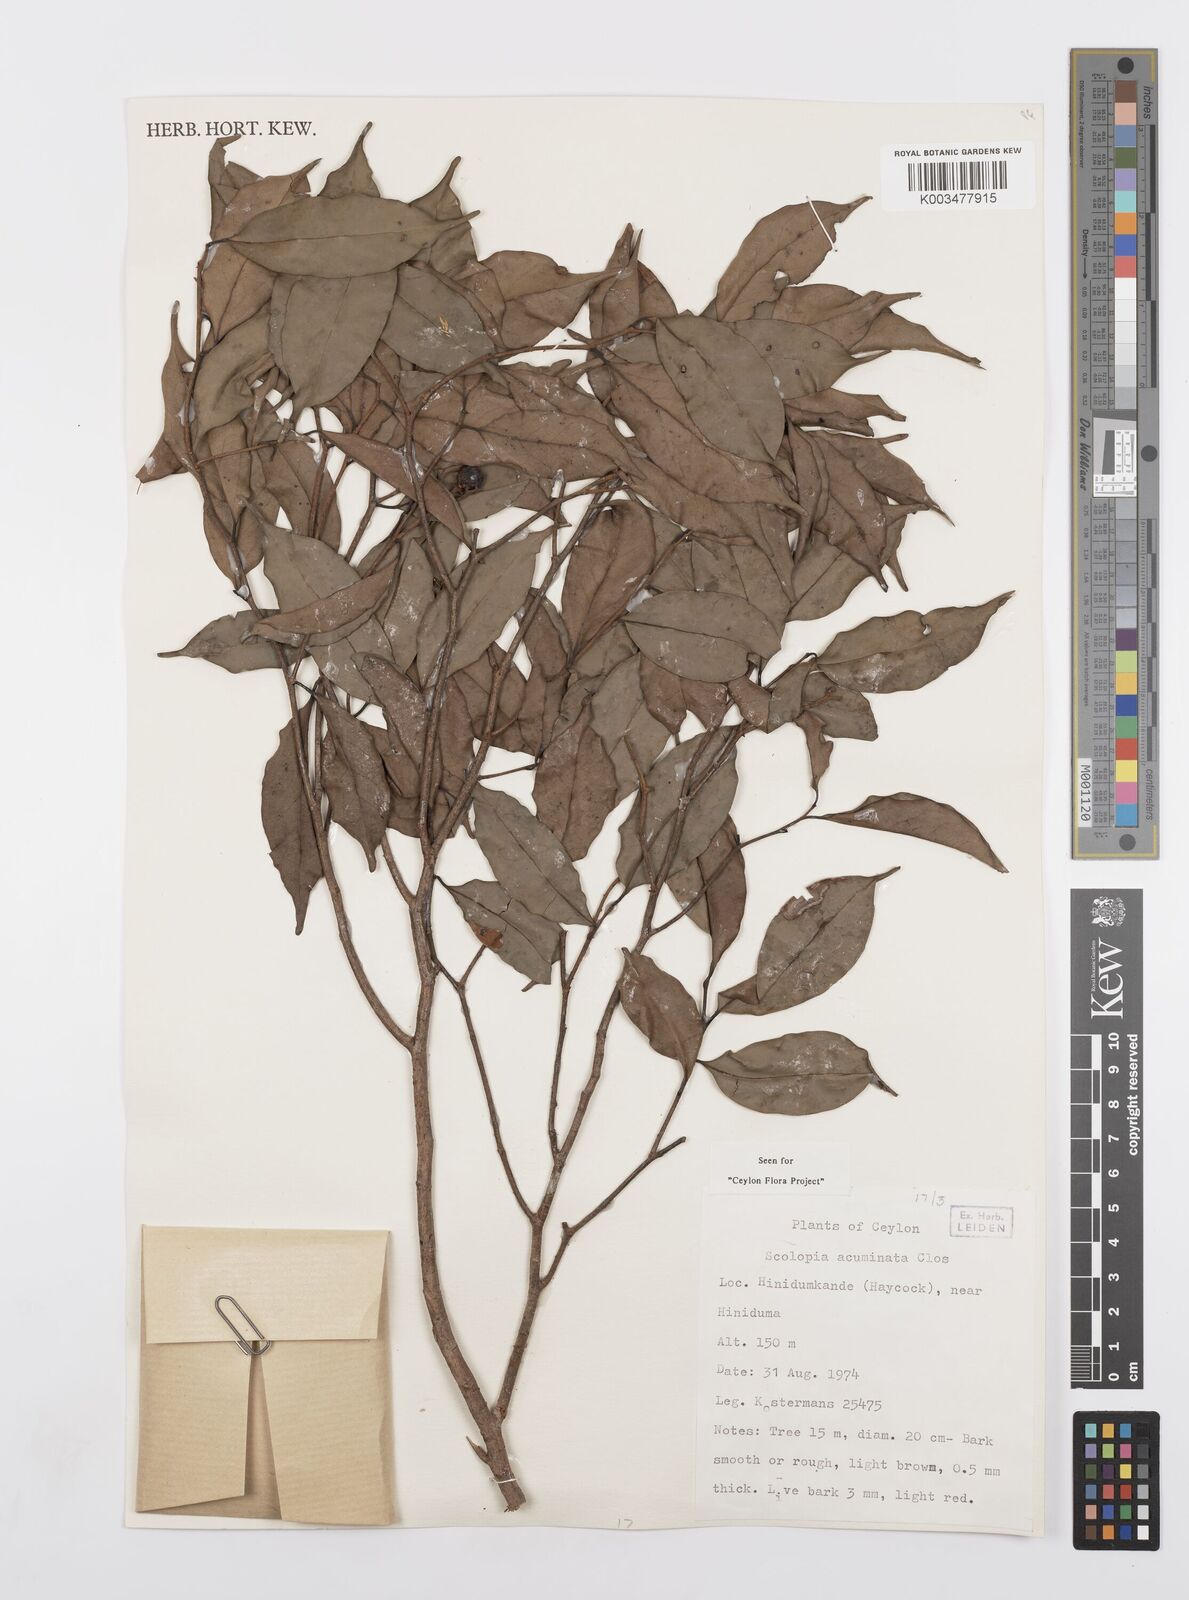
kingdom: Plantae
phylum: Tracheophyta
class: Magnoliopsida
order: Malpighiales
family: Salicaceae
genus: Scolopia
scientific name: Scolopia acuminata
